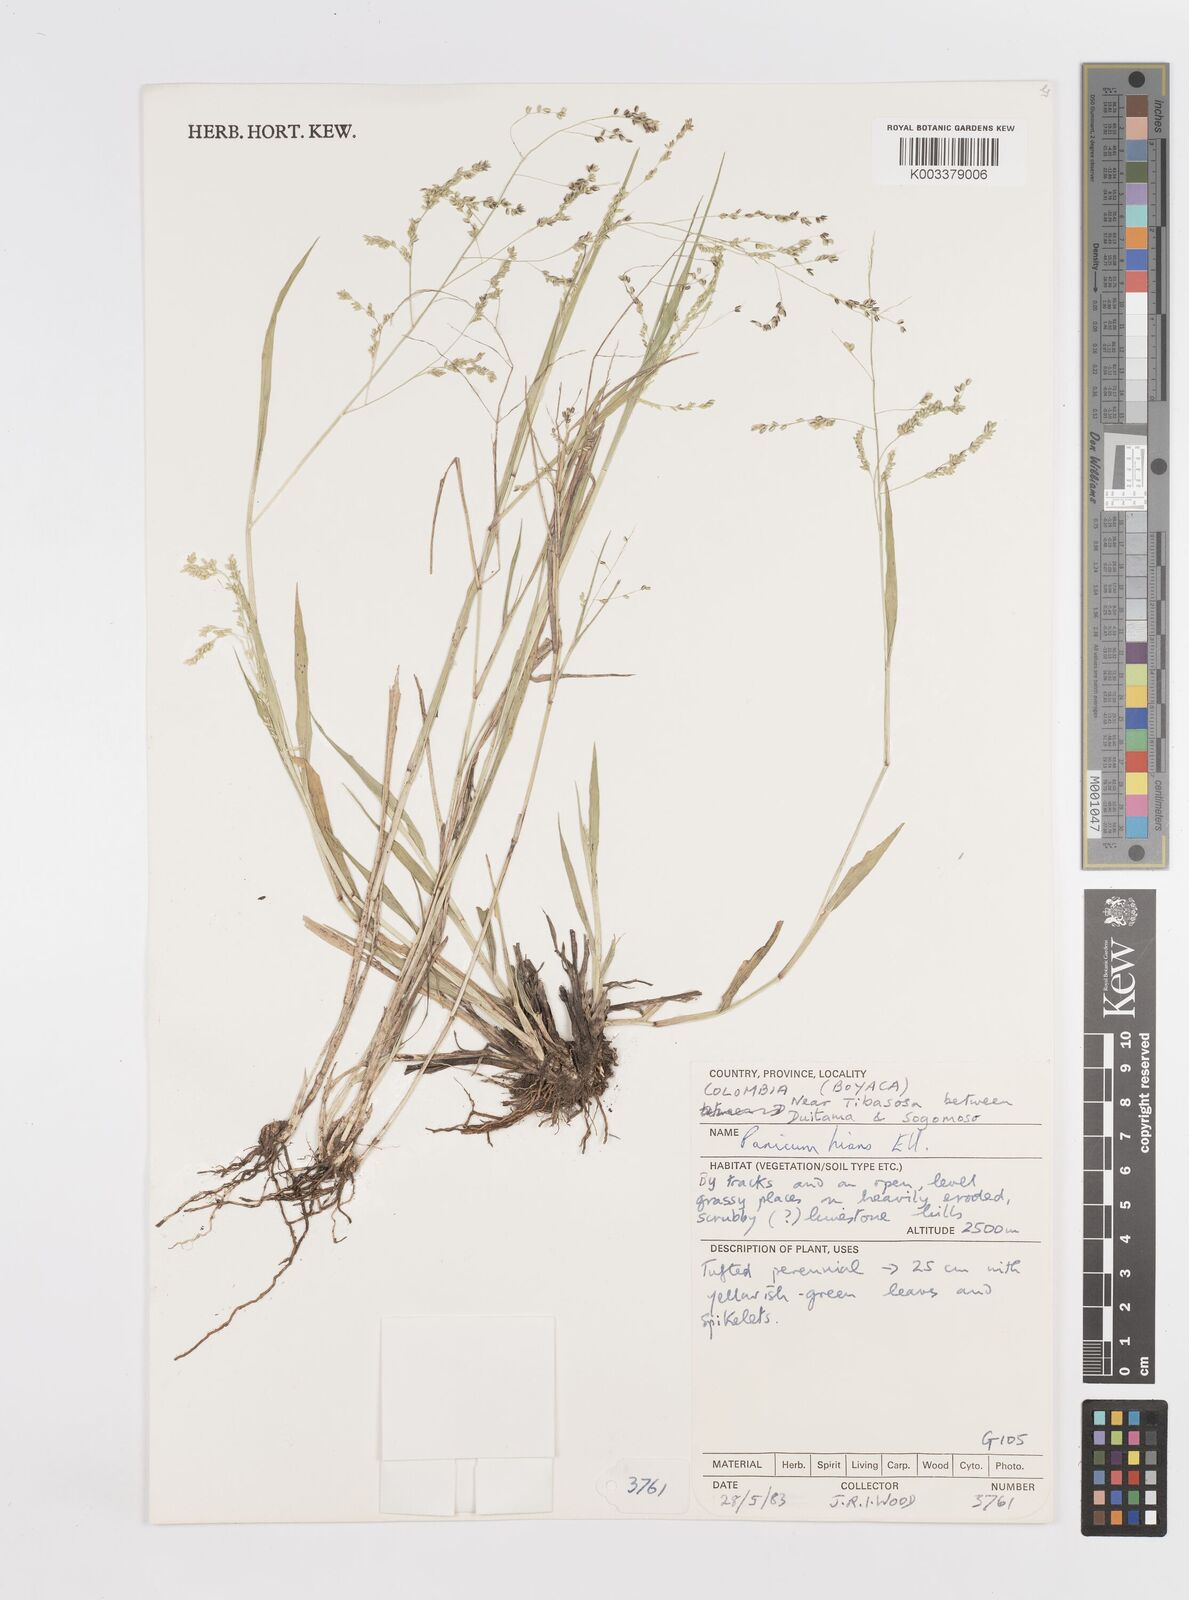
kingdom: Plantae
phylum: Tracheophyta
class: Liliopsida
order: Poales
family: Poaceae
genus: Steinchisma
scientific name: Steinchisma hians
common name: Gaping panic grass
